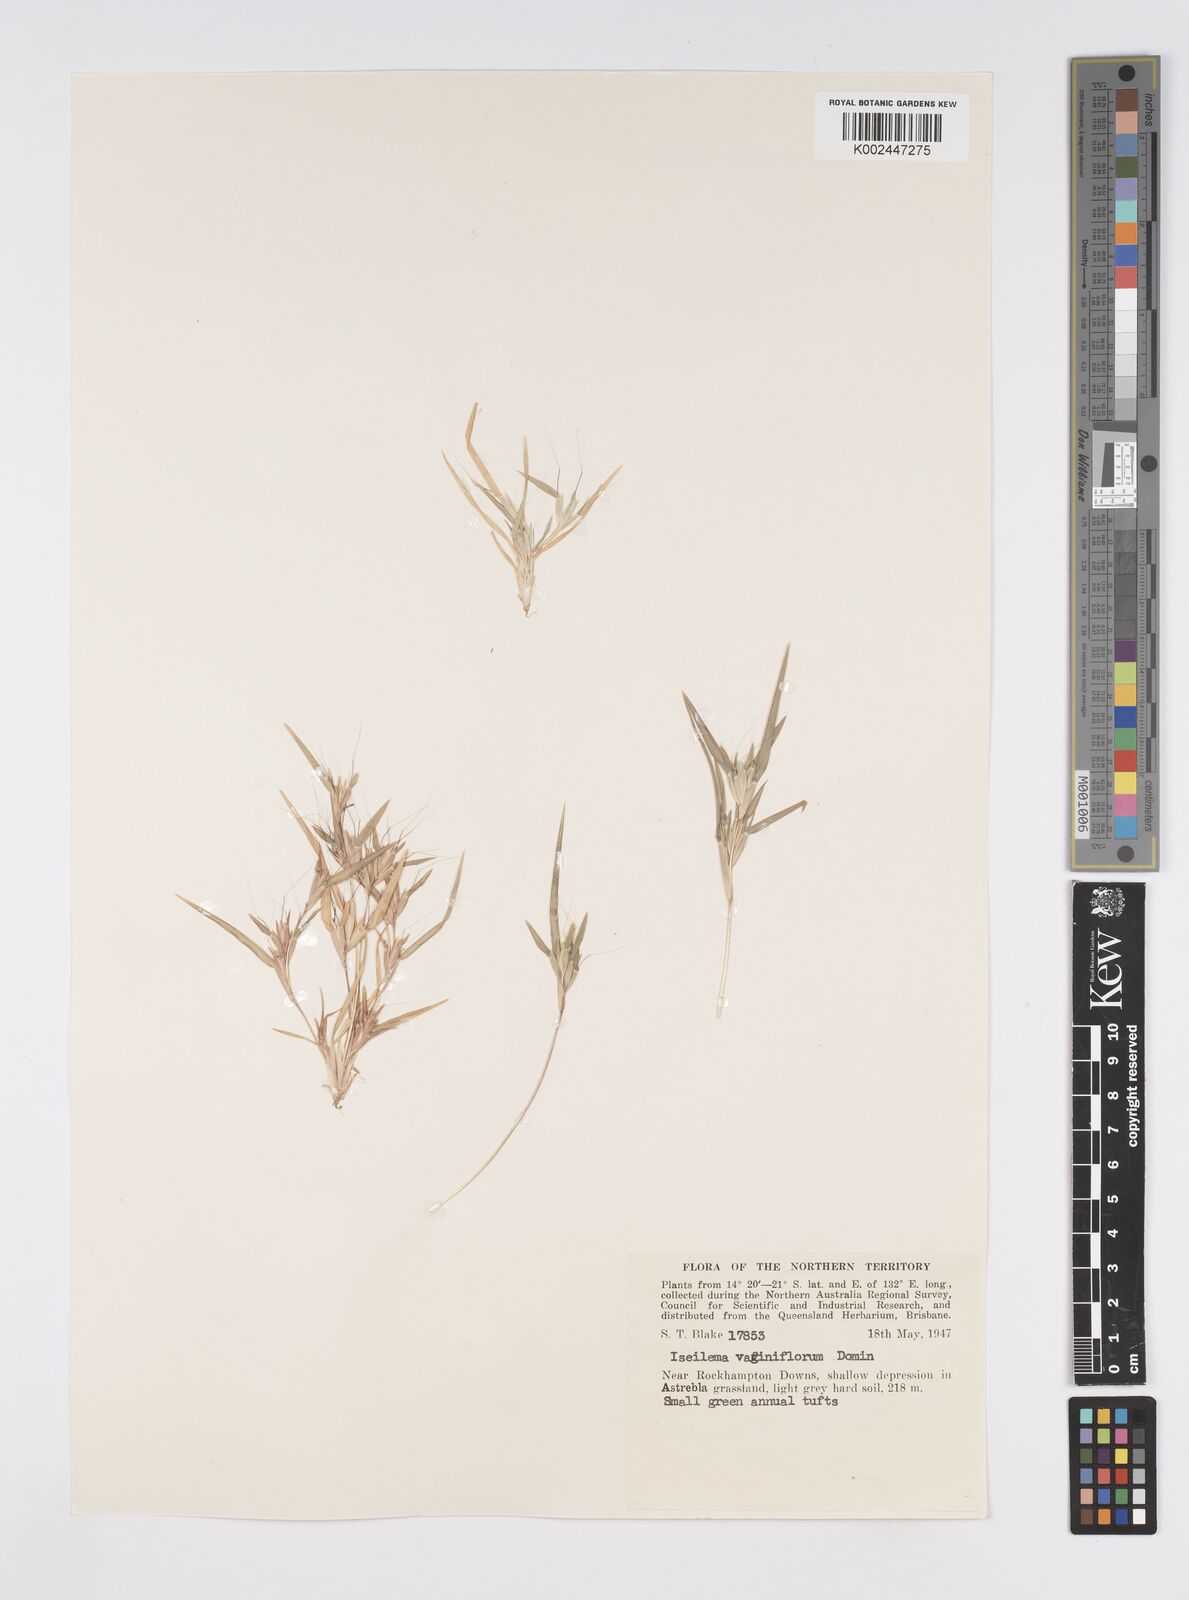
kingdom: Plantae
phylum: Tracheophyta
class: Liliopsida
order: Poales
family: Poaceae
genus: Iseilema
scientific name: Iseilema vaginiflorum
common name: Red flinders grass
